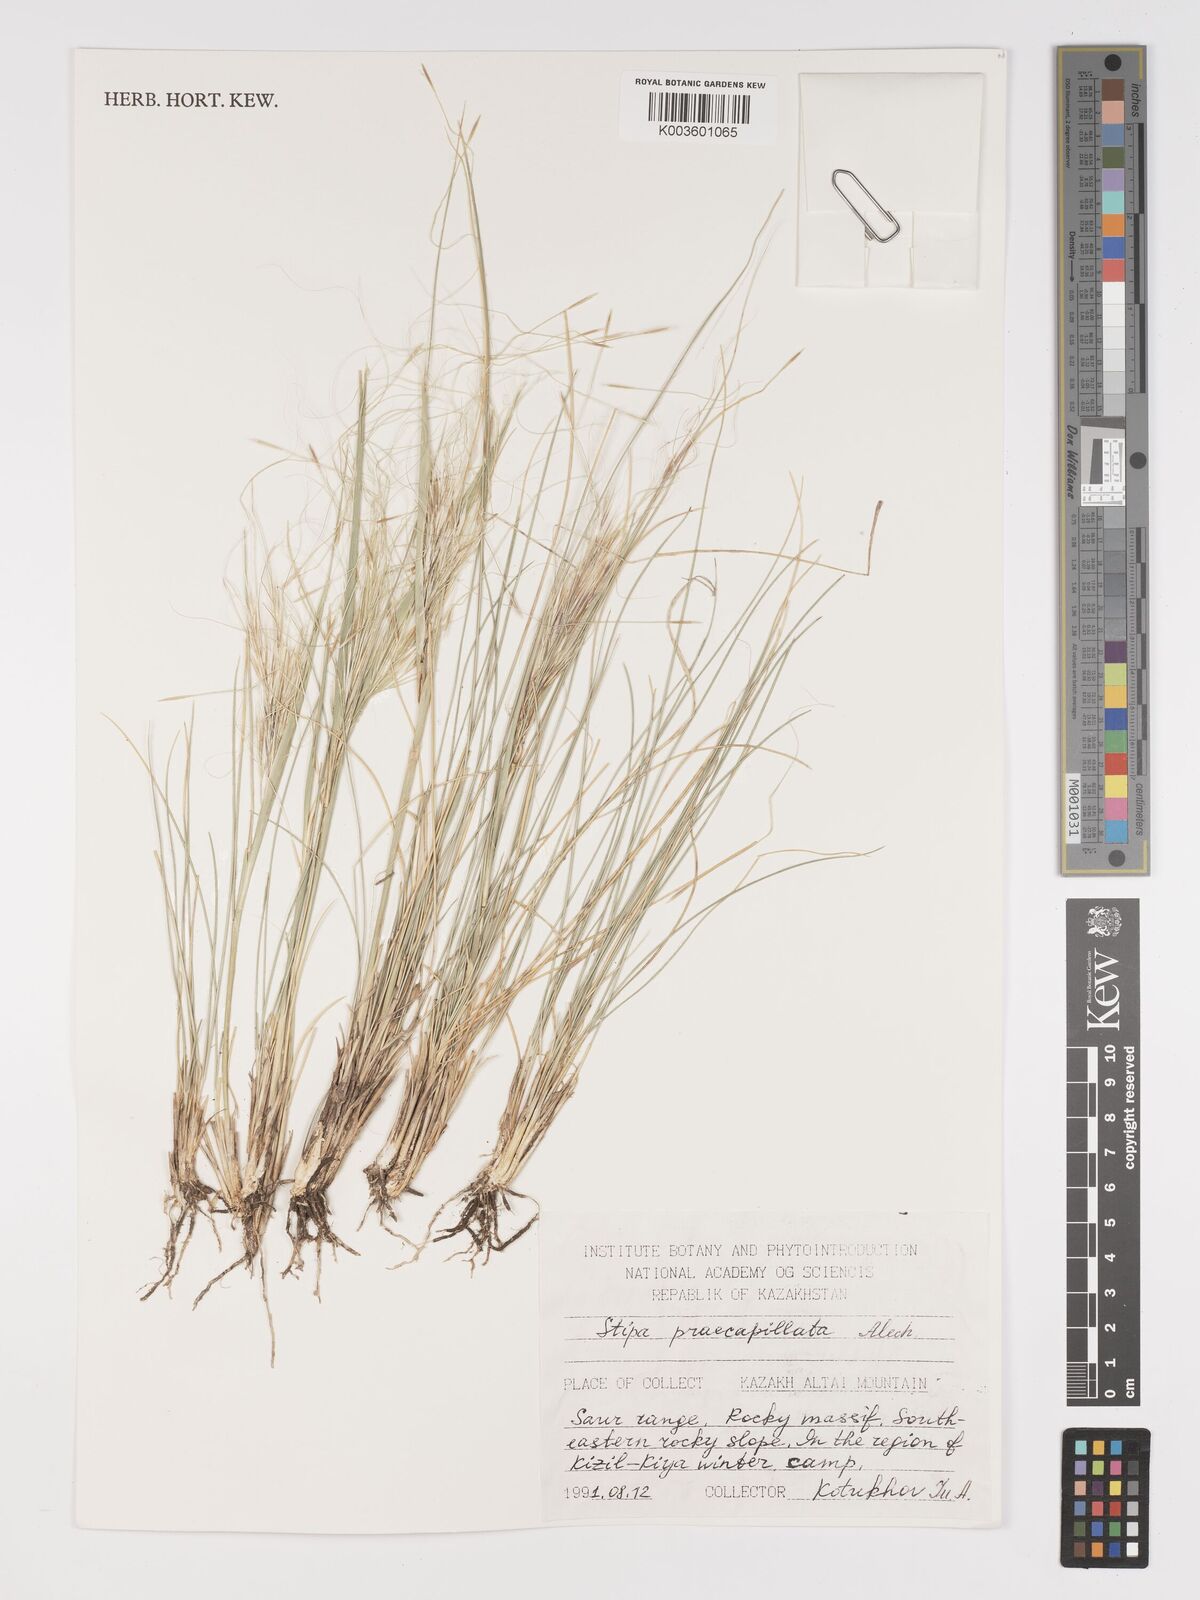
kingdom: Plantae
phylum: Tracheophyta
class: Liliopsida
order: Poales
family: Poaceae
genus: Stipa
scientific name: Stipa sareptana
